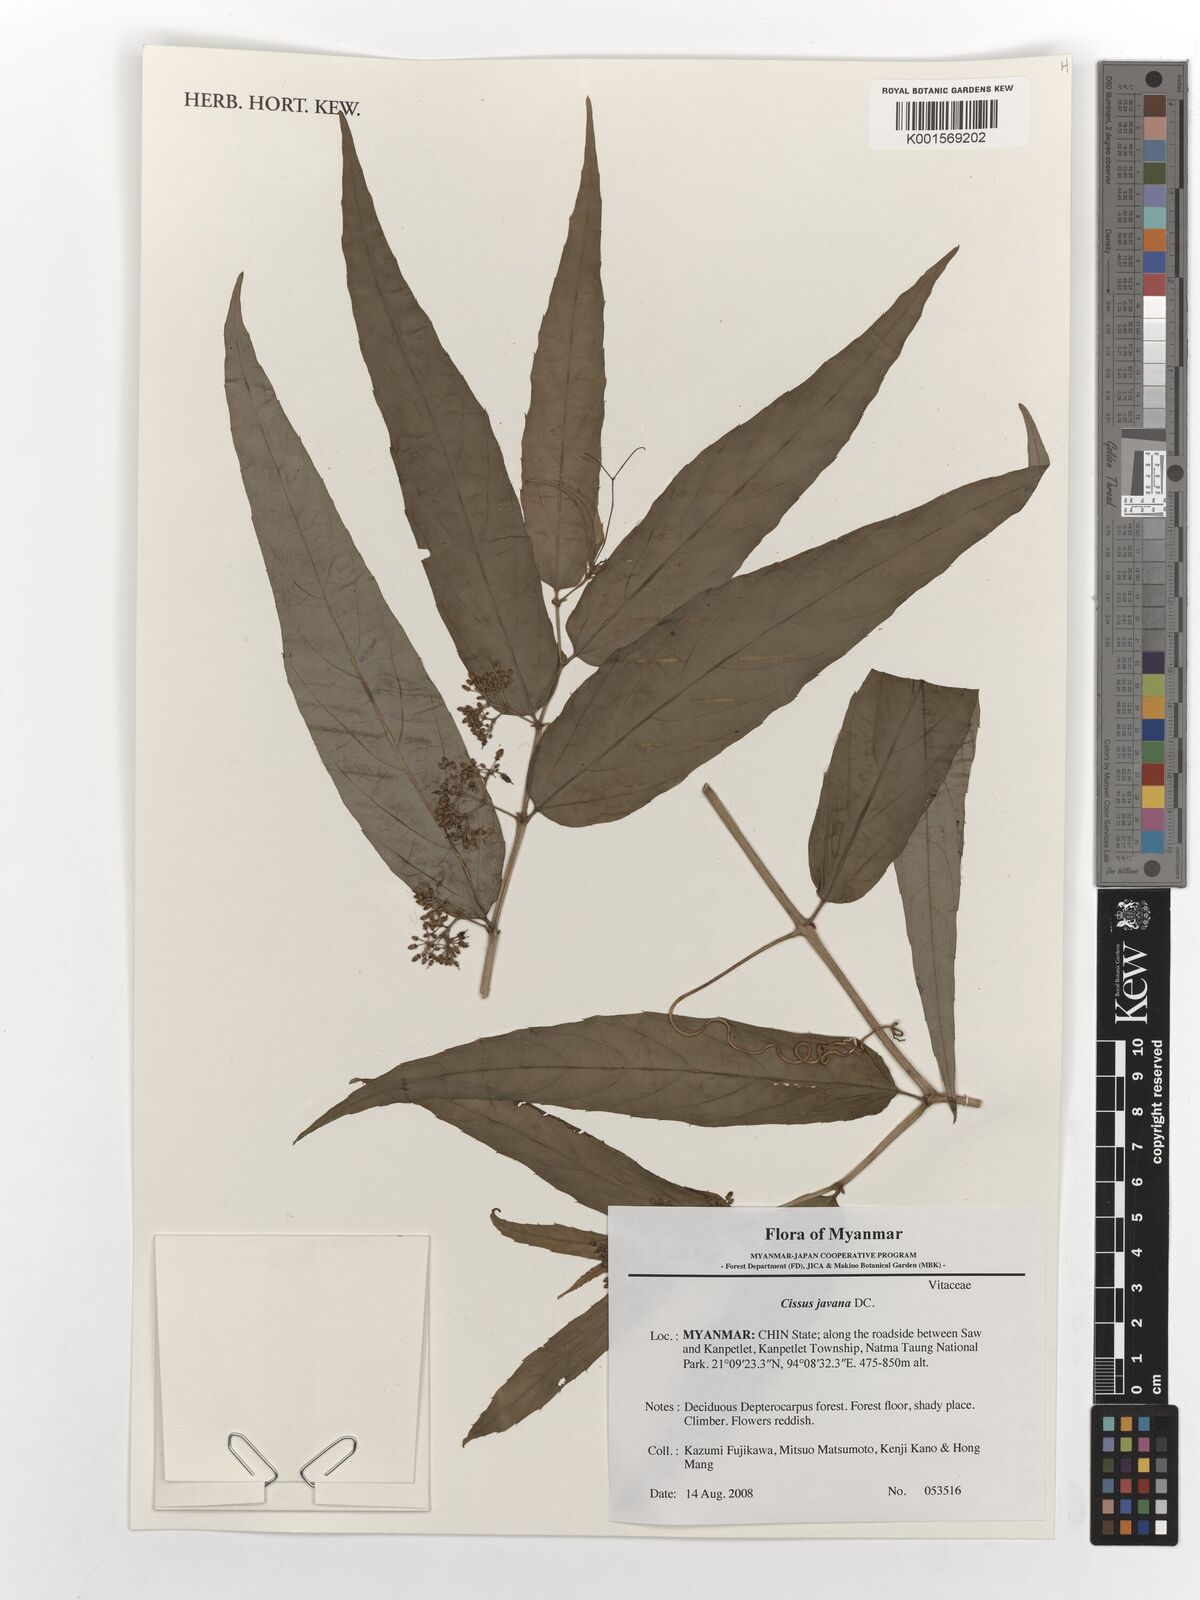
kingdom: Plantae
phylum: Tracheophyta
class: Magnoliopsida
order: Vitales
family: Vitaceae
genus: Cissus
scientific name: Cissus discolor
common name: Climbing-begonia
